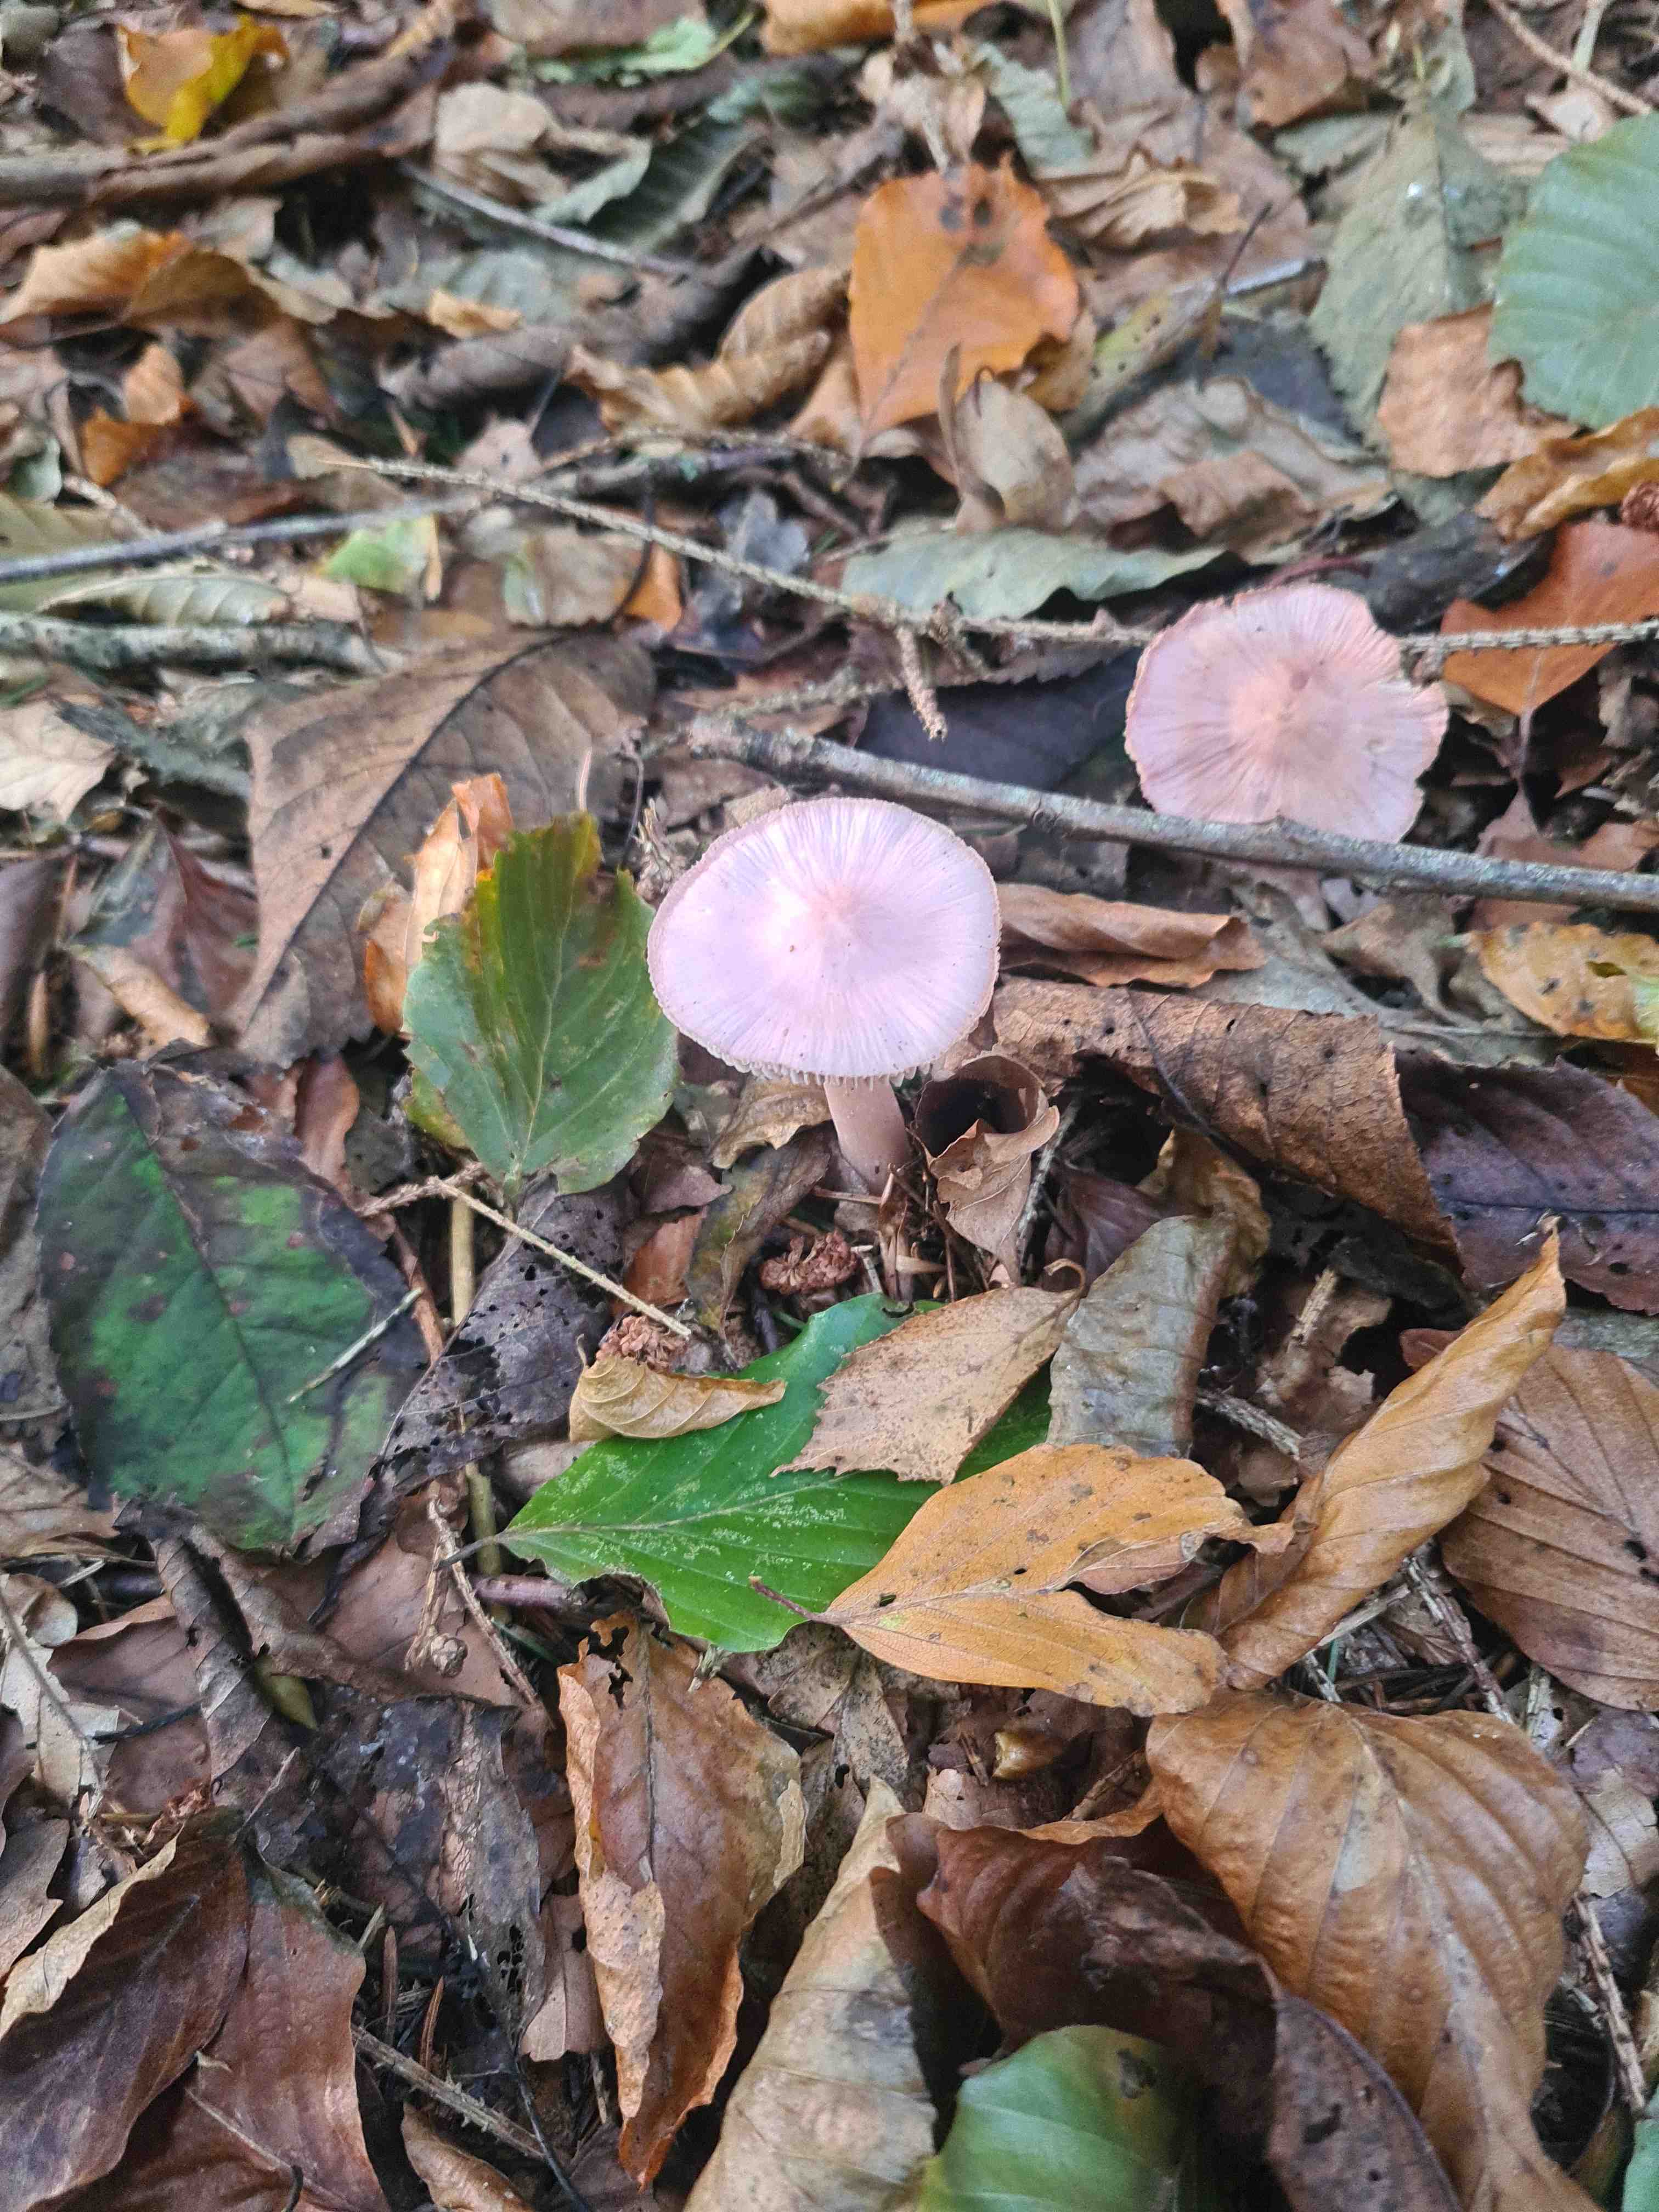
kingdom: Fungi
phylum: Basidiomycota
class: Agaricomycetes
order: Agaricales
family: Mycenaceae
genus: Mycena
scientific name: Mycena rosea
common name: rosa huesvamp
